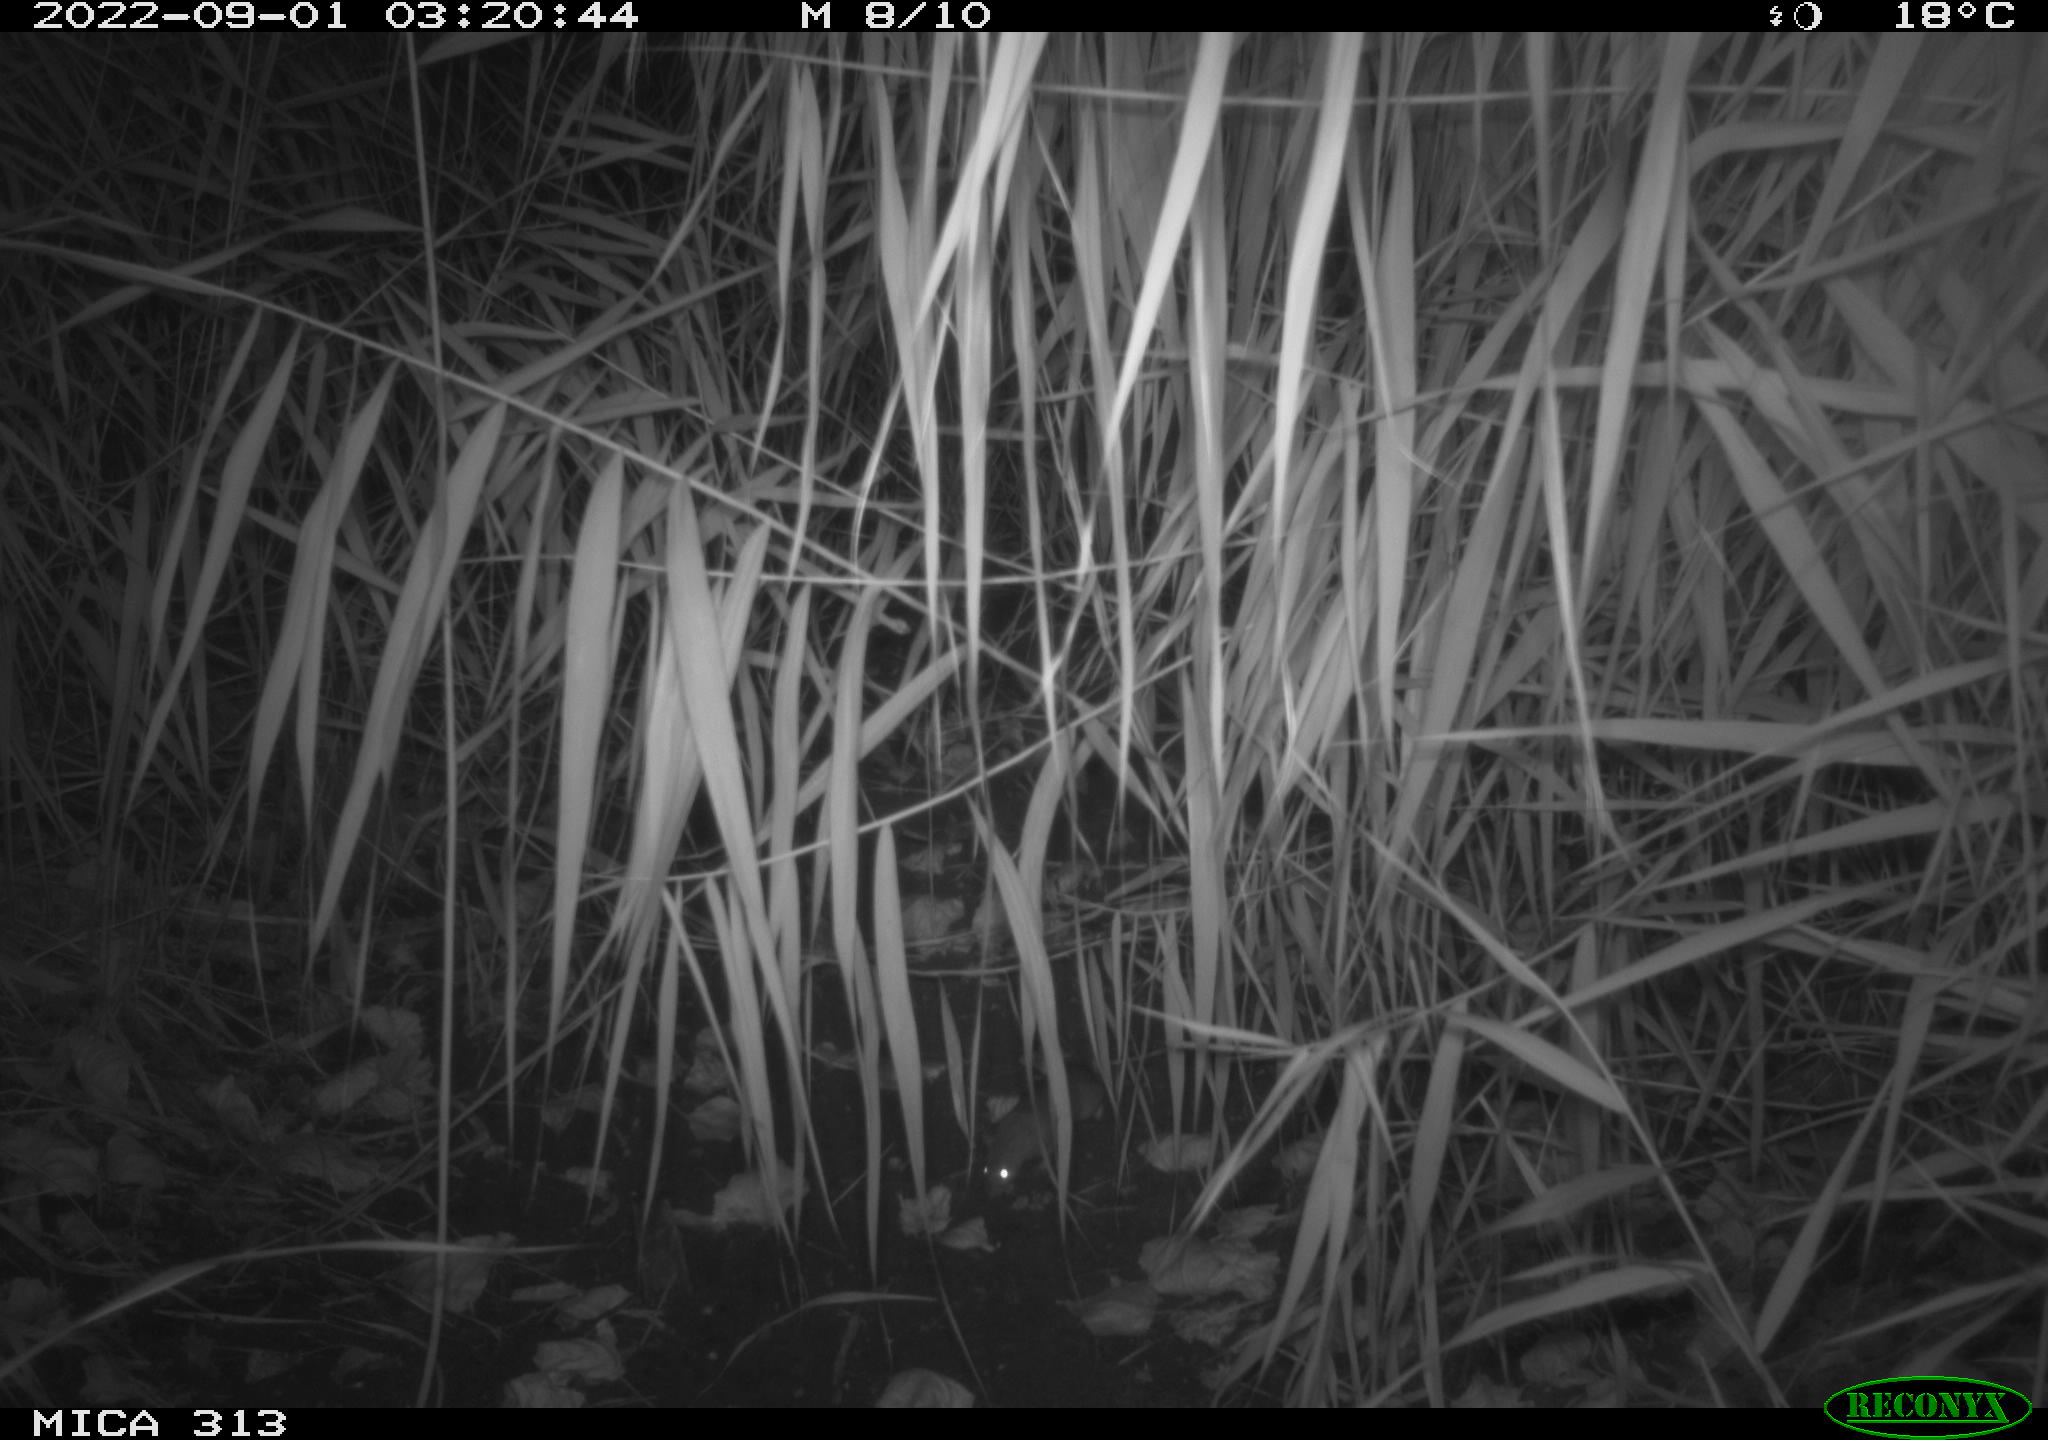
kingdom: Animalia
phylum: Chordata
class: Mammalia
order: Rodentia
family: Muridae
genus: Rattus
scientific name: Rattus norvegicus
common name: Brown rat
